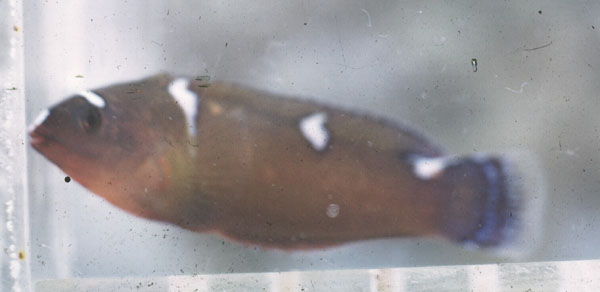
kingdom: Animalia
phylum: Chordata
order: Perciformes
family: Labridae
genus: Coris
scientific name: Coris cuvieri
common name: African coris
